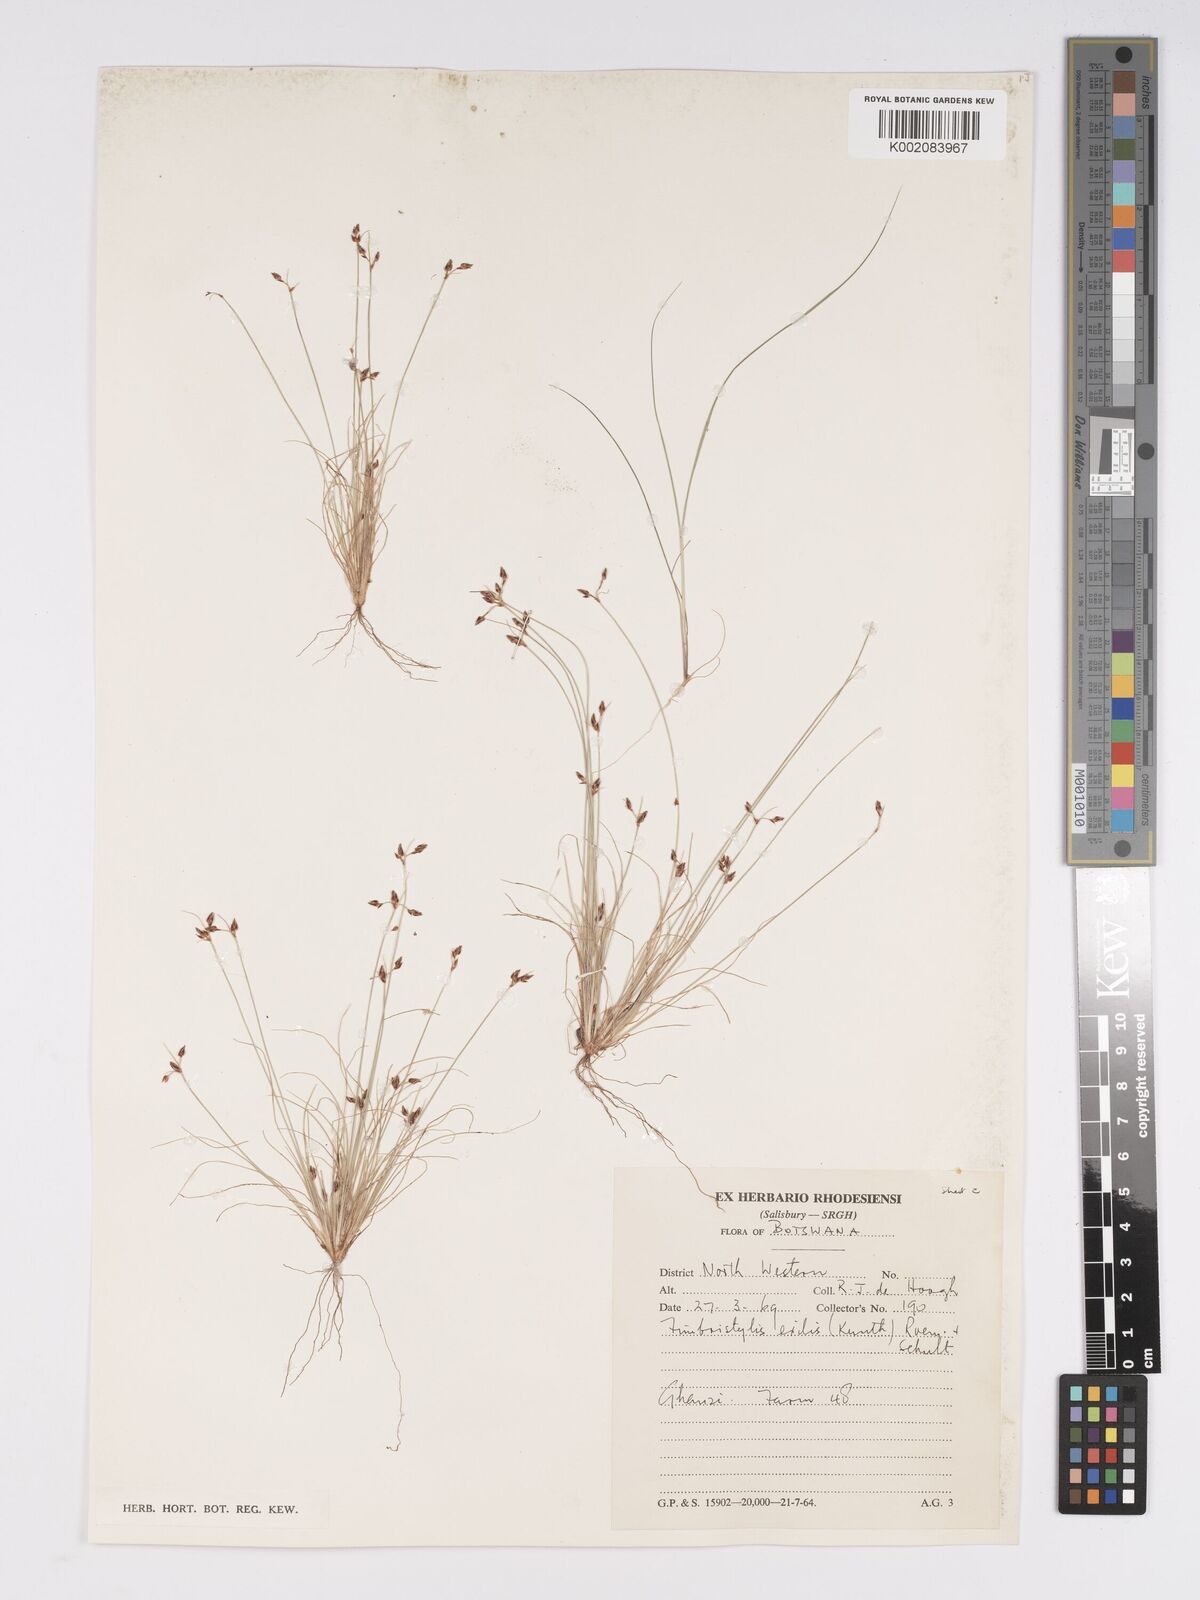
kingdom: Plantae
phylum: Tracheophyta
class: Liliopsida
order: Poales
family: Cyperaceae
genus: Bulbostylis
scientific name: Bulbostylis hispidula
